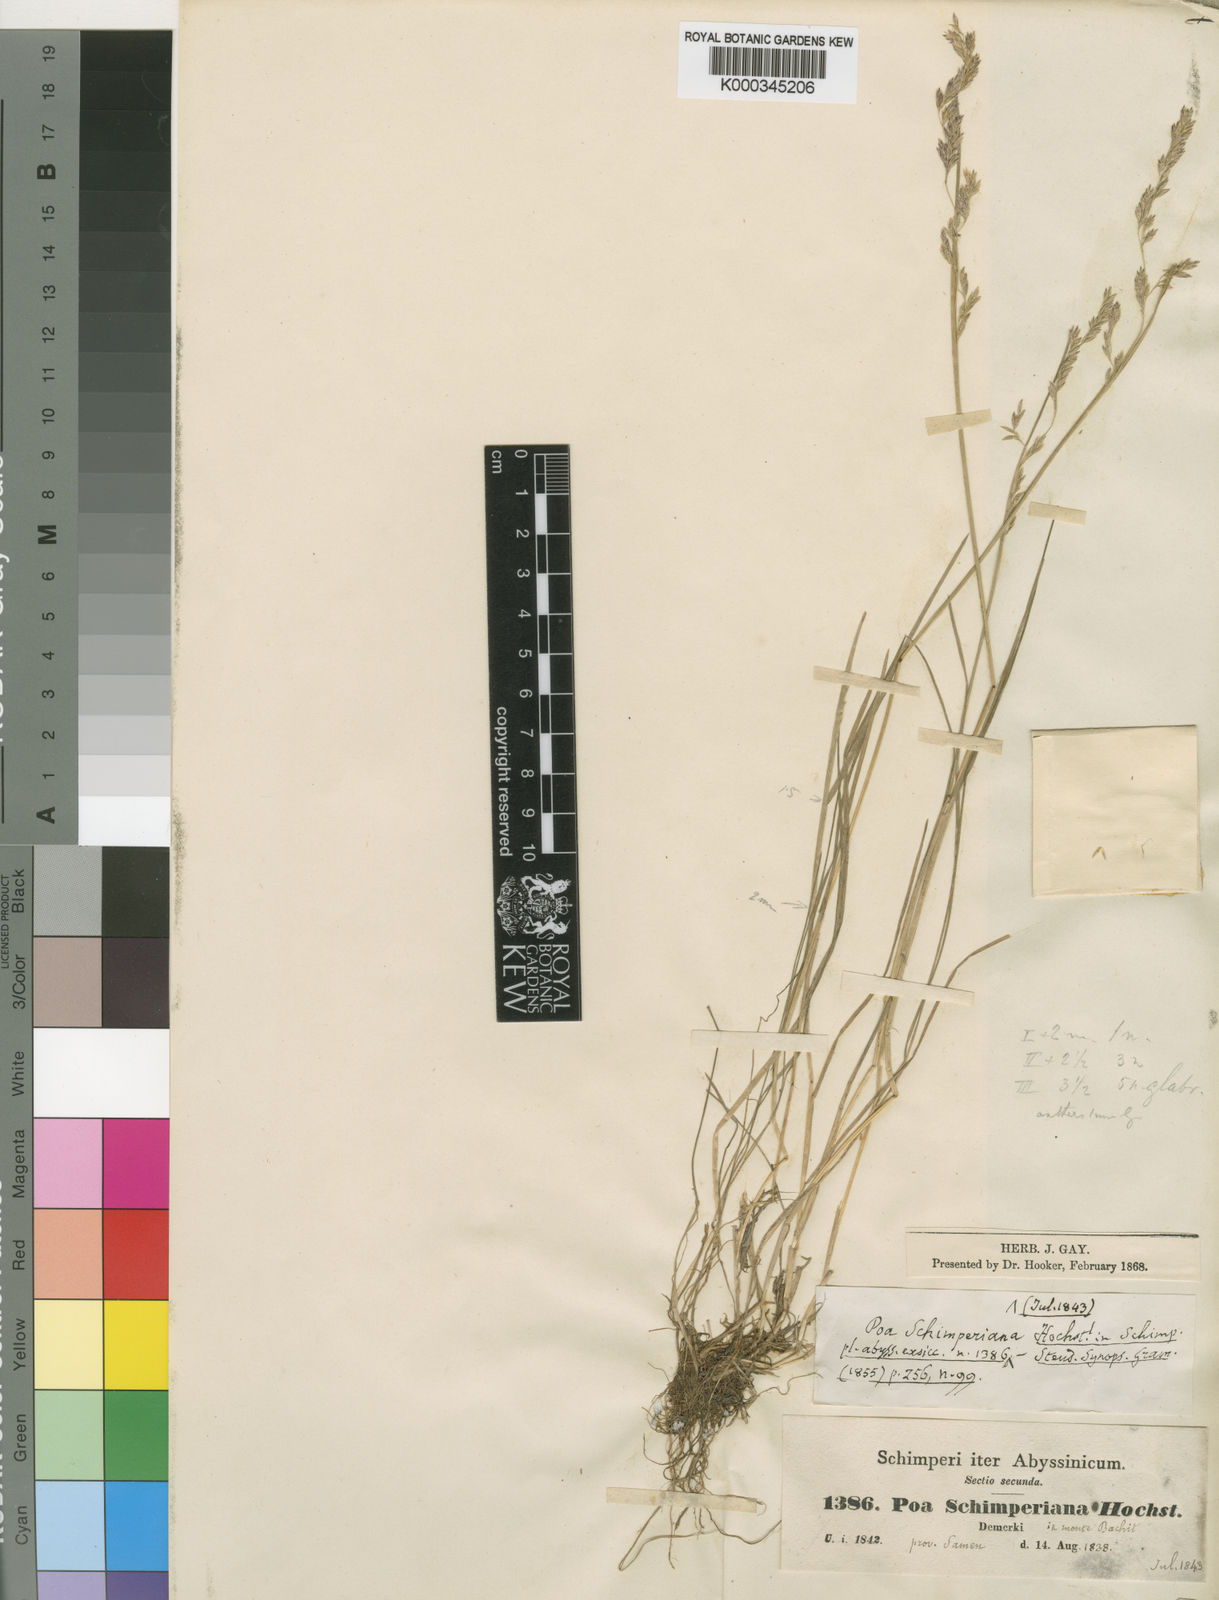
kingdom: Plantae
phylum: Tracheophyta
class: Liliopsida
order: Poales
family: Poaceae
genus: Poa
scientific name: Poa schimperiana
